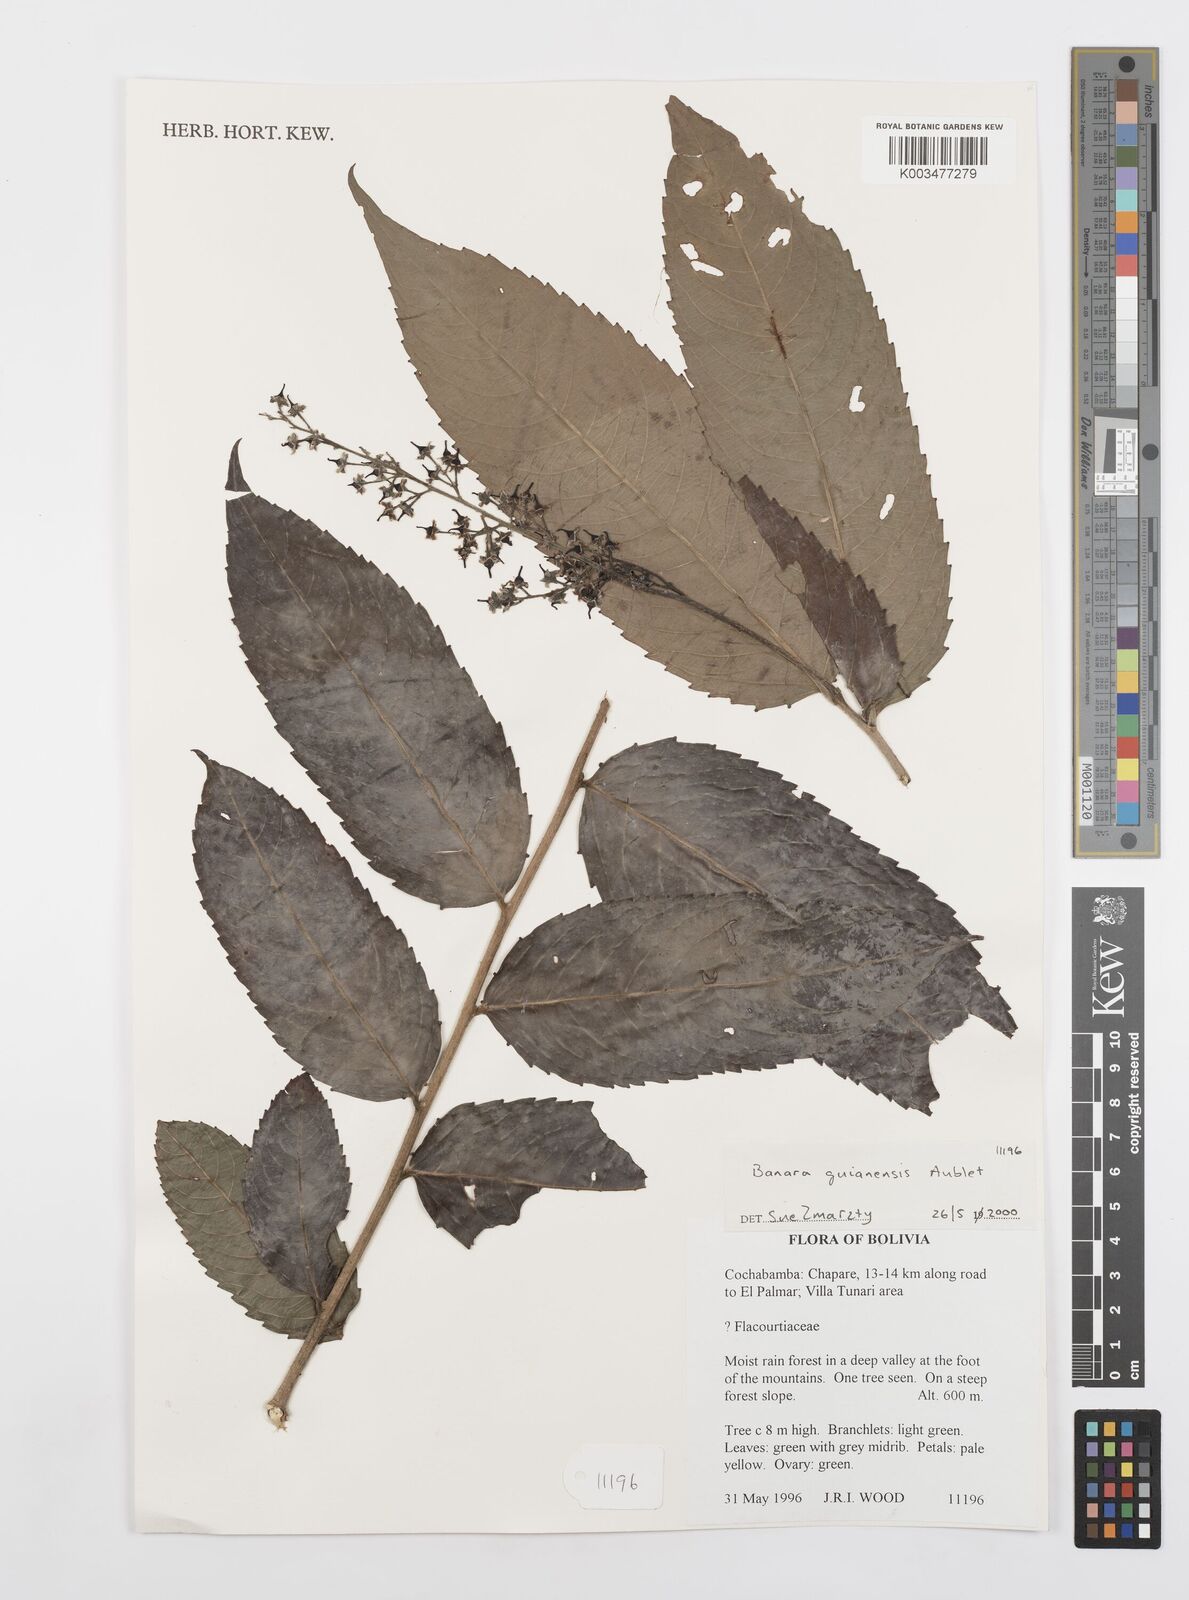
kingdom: Plantae
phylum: Tracheophyta
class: Magnoliopsida
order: Malpighiales
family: Salicaceae
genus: Banara
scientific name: Banara guianensis
